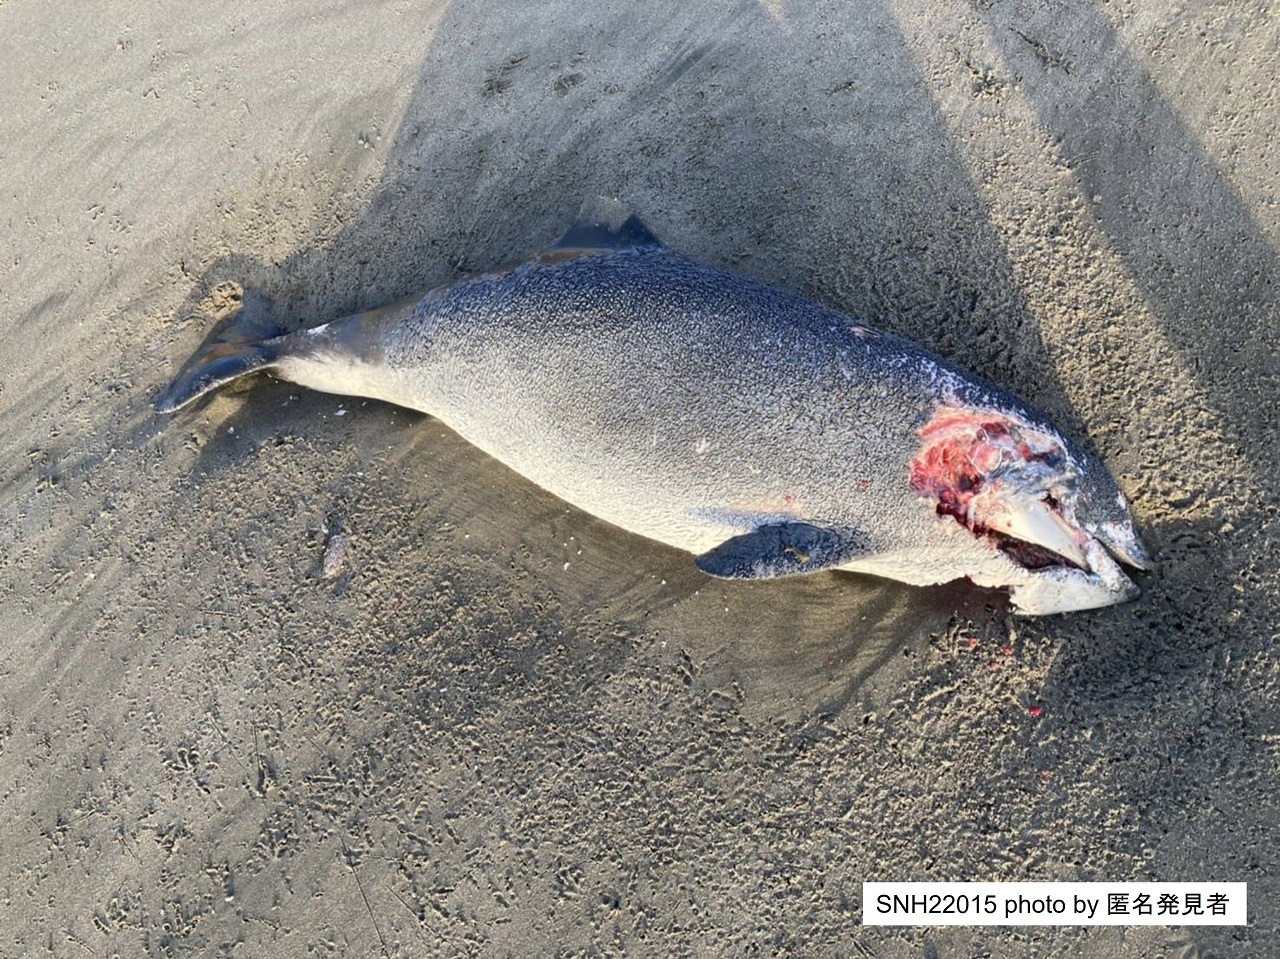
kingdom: Animalia
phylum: Chordata
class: Mammalia
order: Cetacea
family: Phocoenidae
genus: Phocoena
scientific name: Phocoena phocoena
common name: Harbour porpoise
